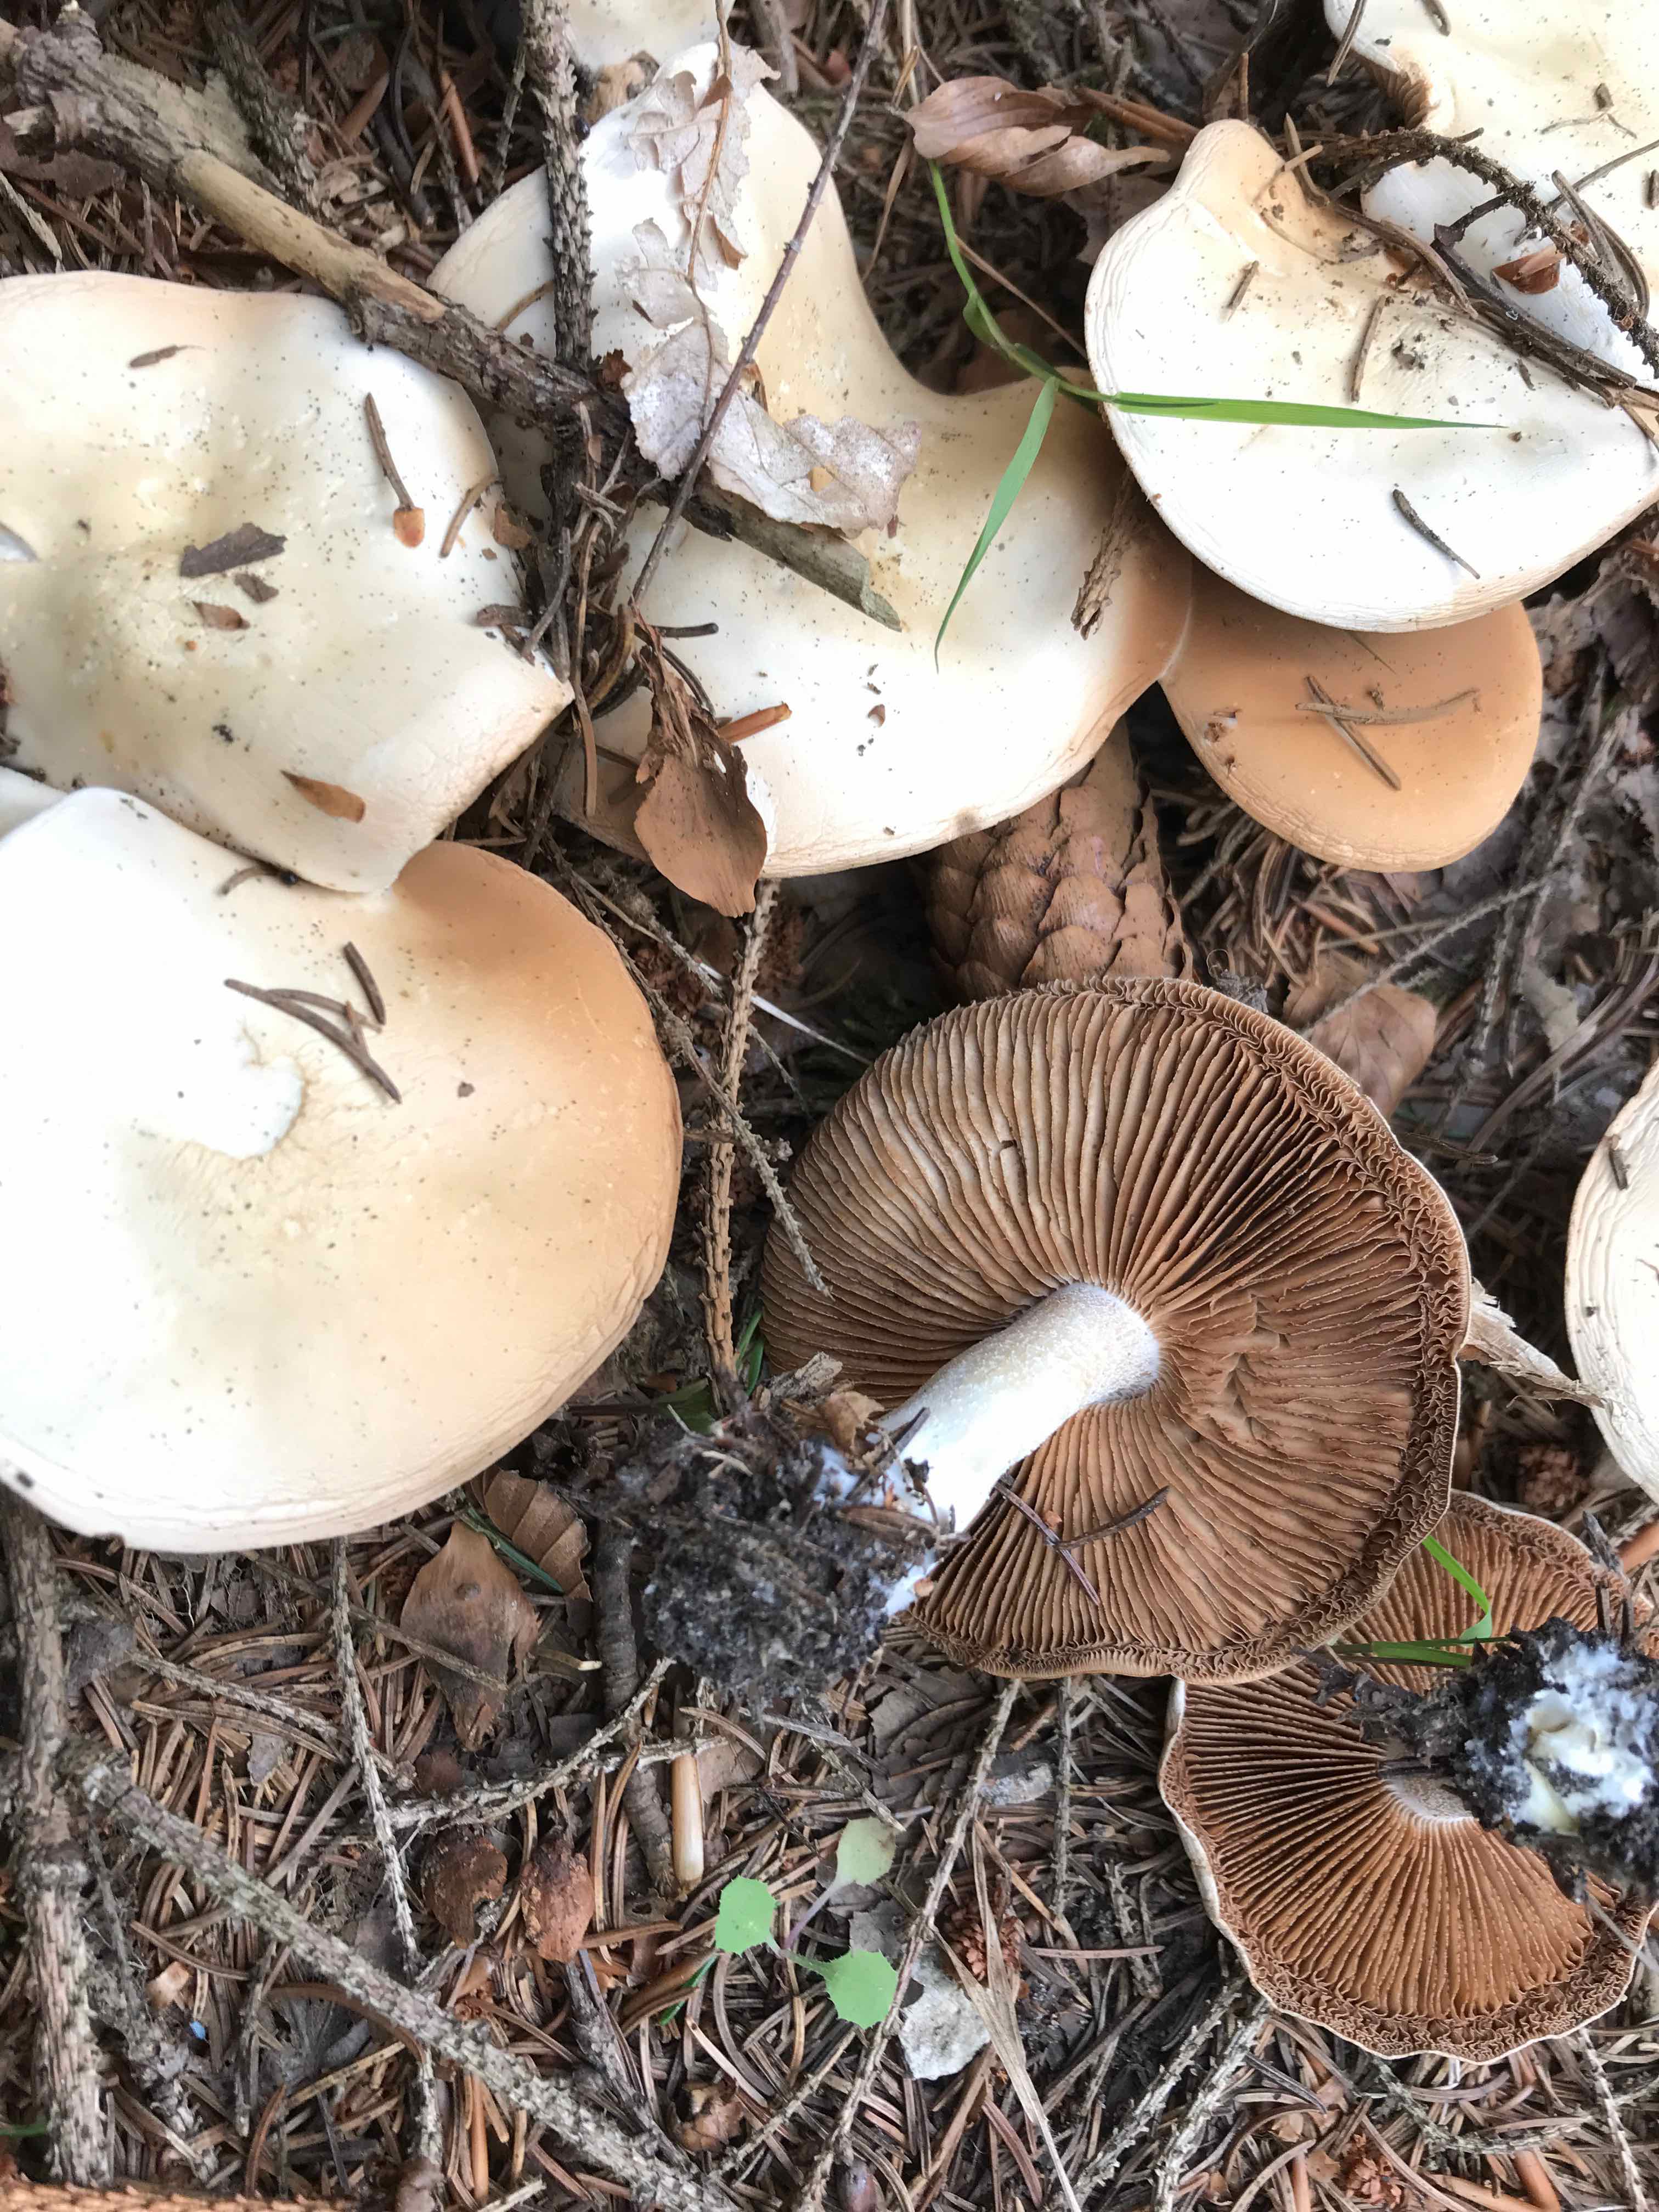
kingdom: Fungi
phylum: Basidiomycota
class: Agaricomycetes
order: Agaricales
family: Cortinariaceae
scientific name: Cortinariaceae
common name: slørhatfamilien
